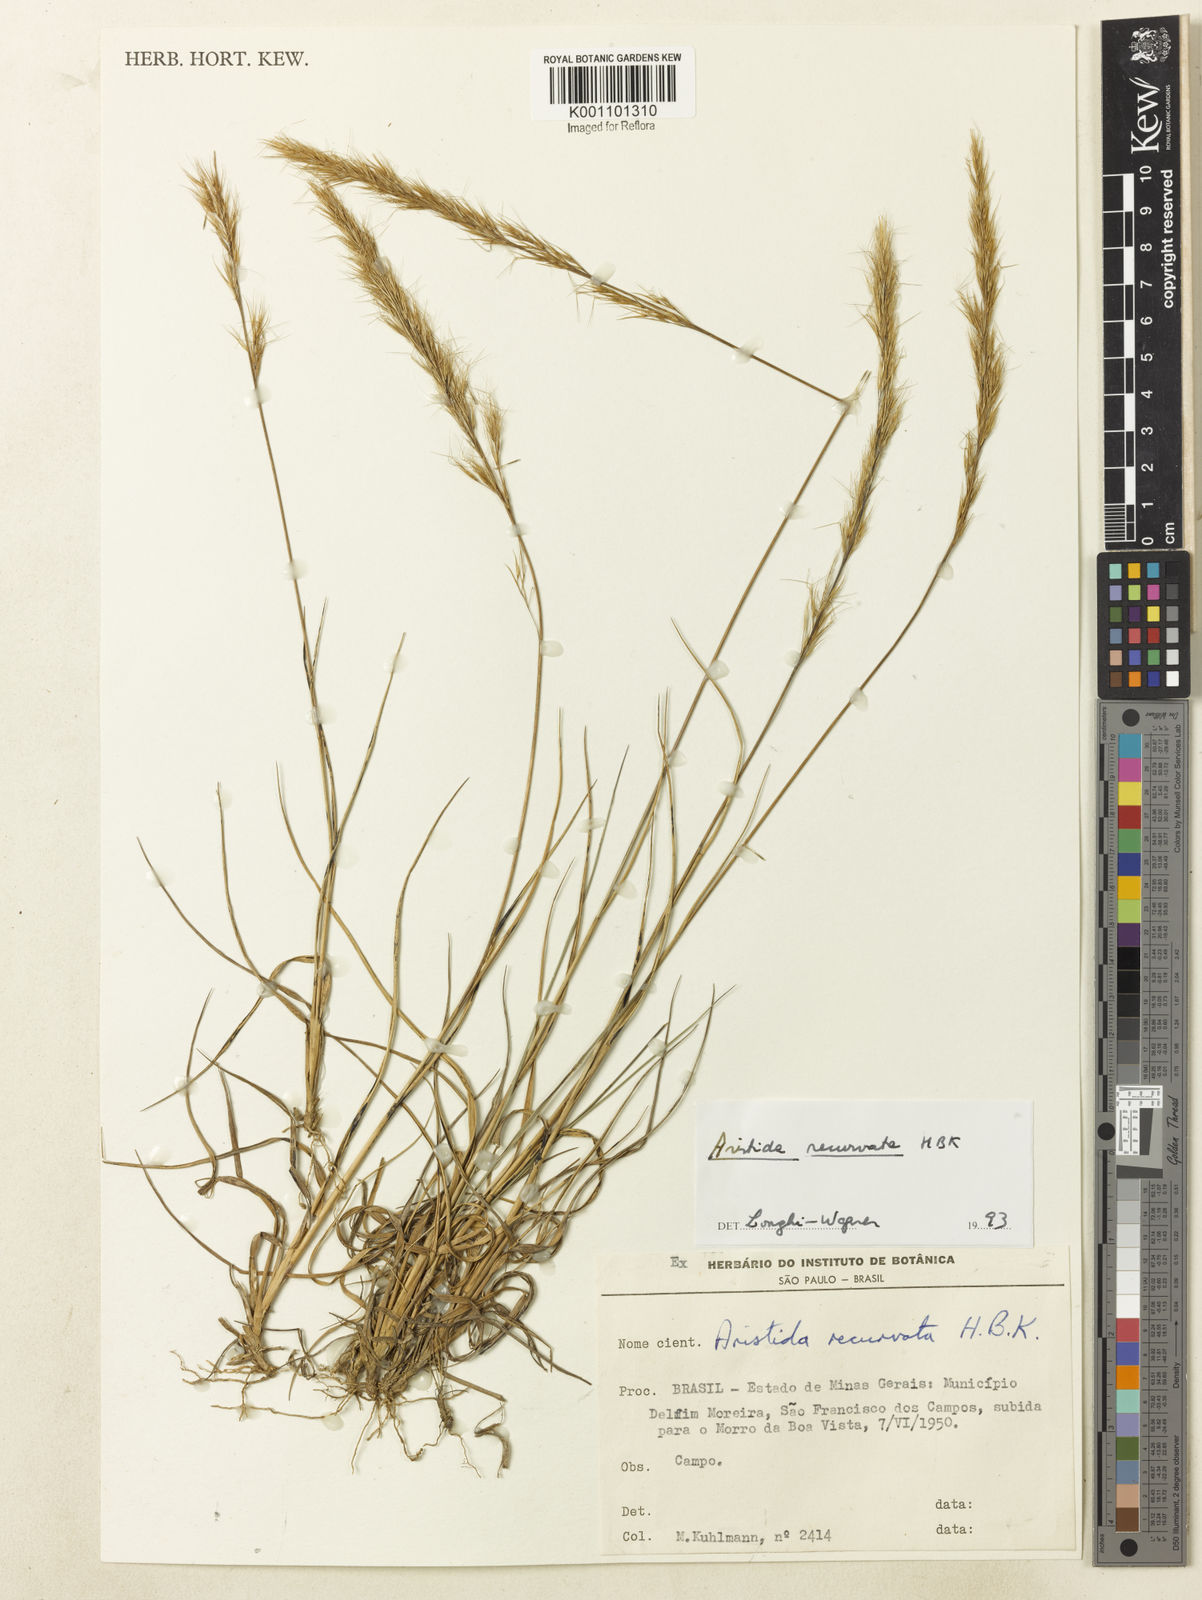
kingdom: Plantae
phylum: Tracheophyta
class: Liliopsida
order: Poales
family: Poaceae
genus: Aristida
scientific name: Aristida recurvata
